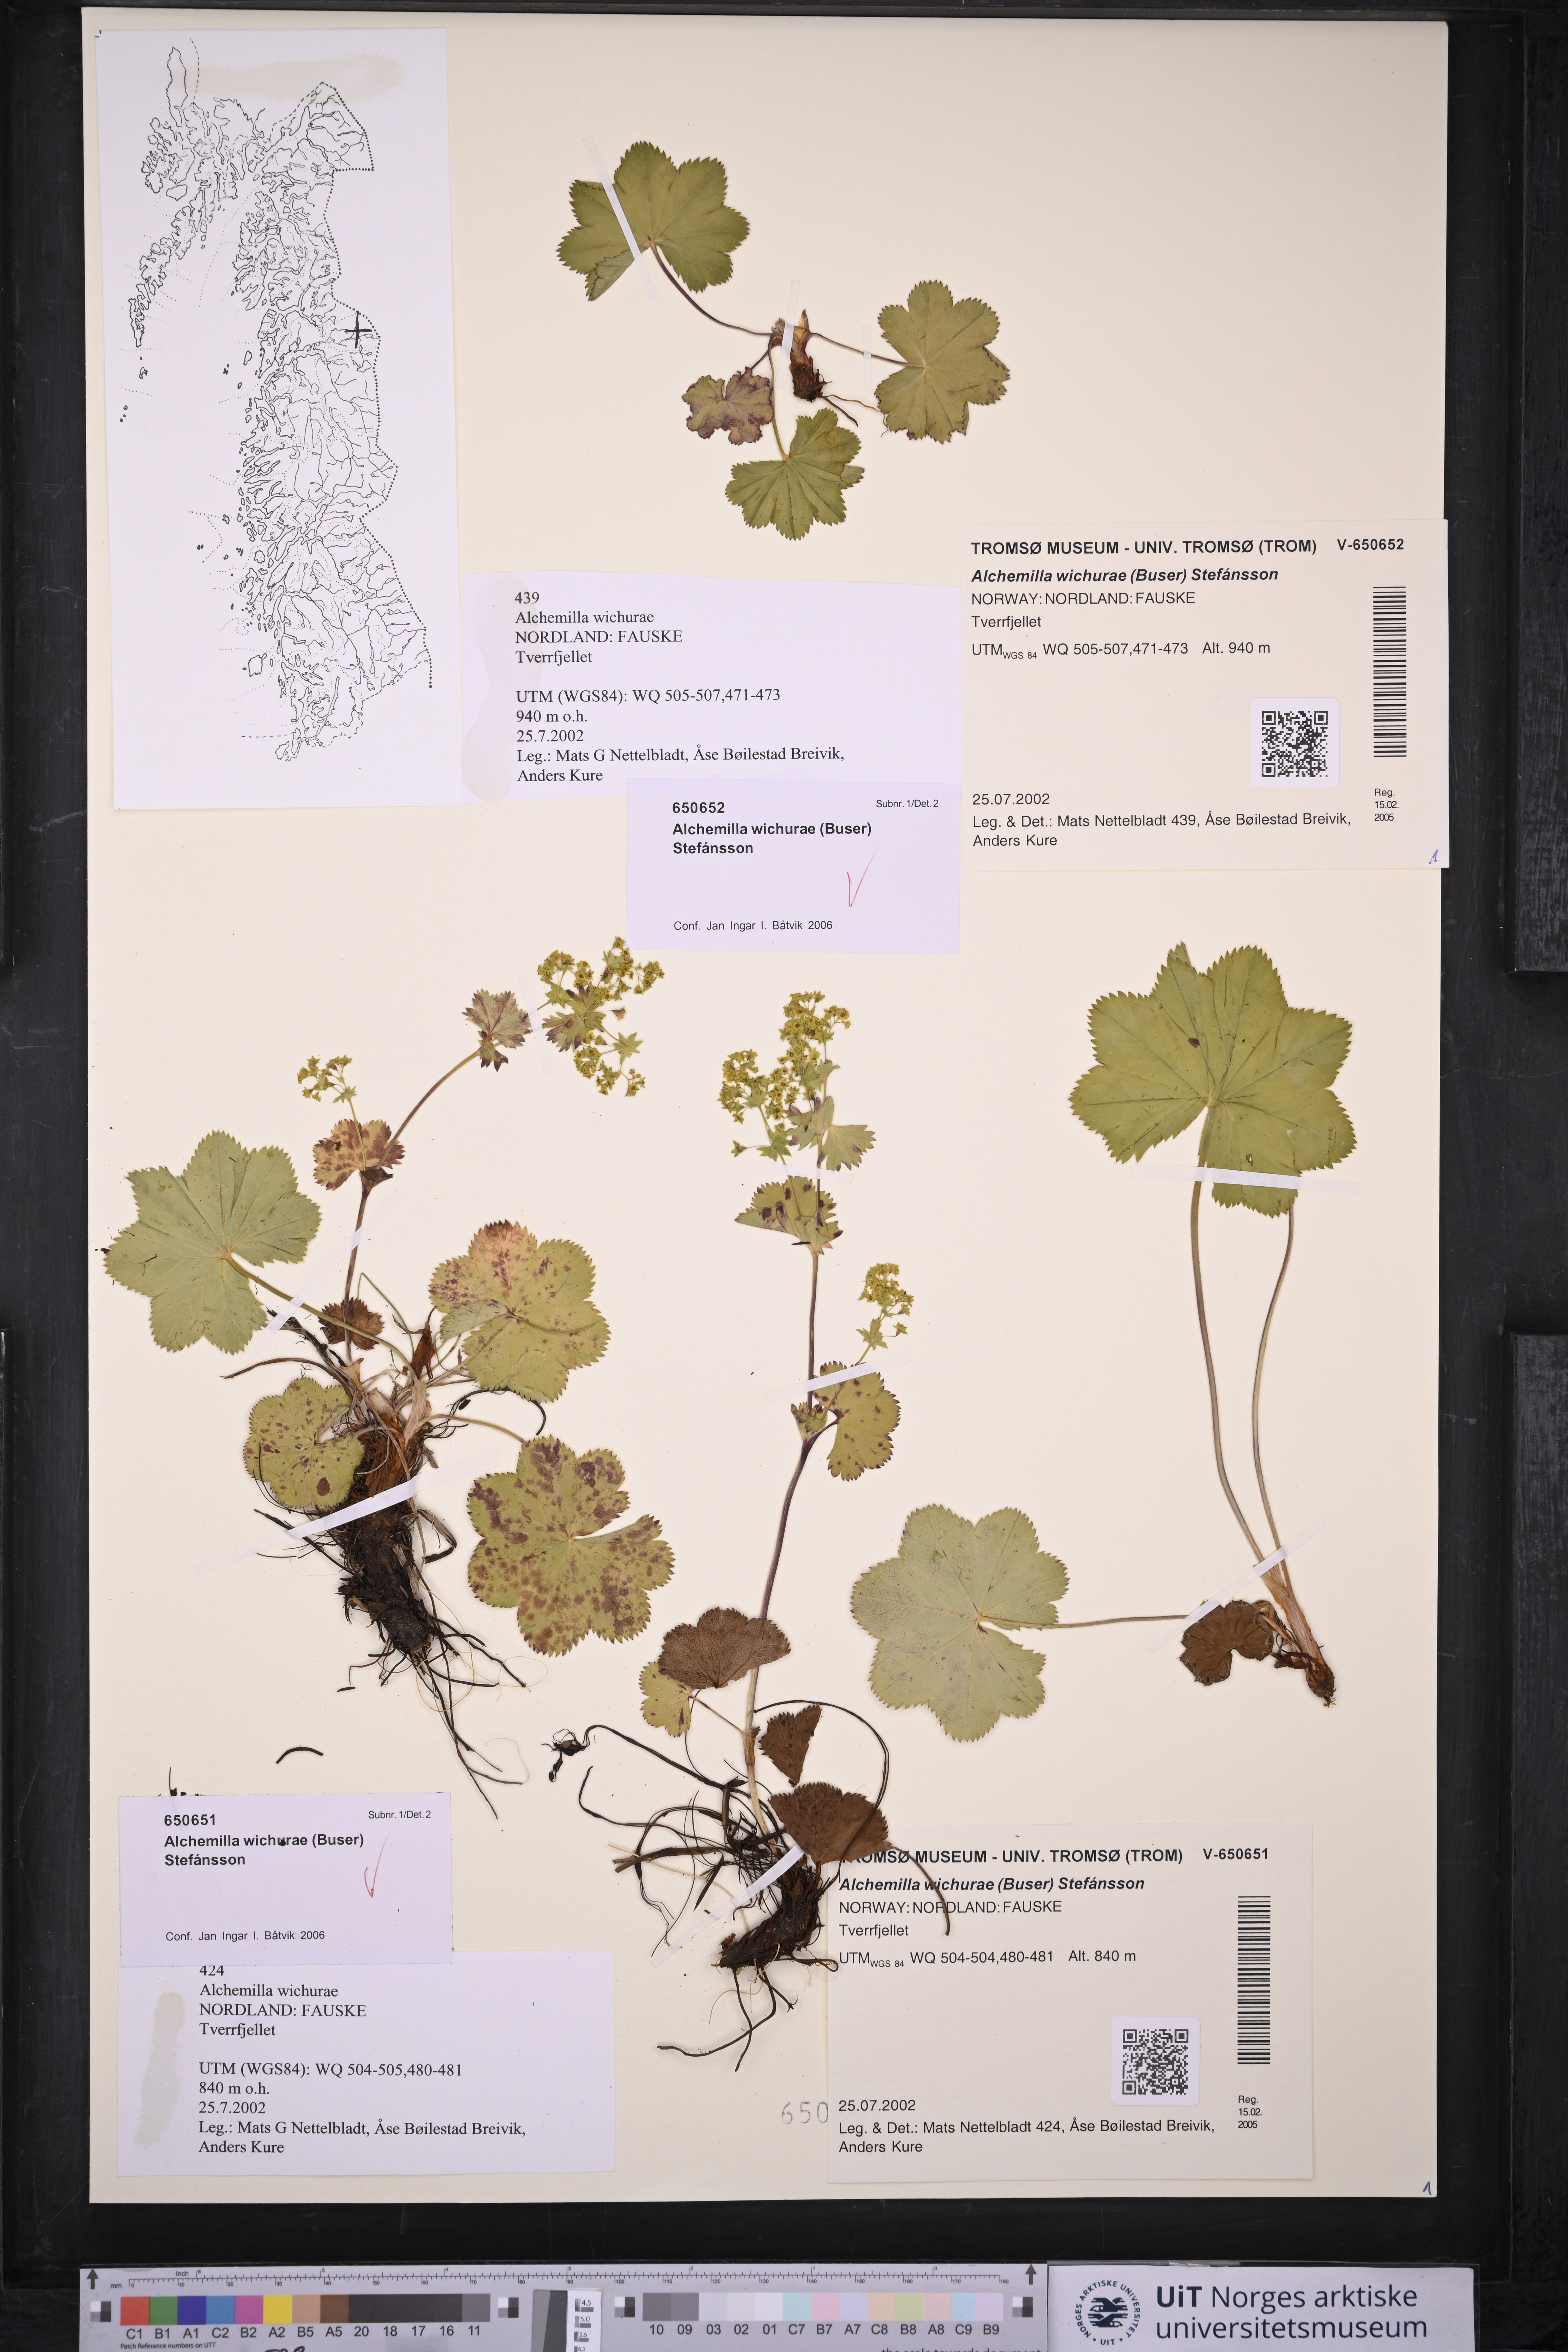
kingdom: Plantae
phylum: Tracheophyta
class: Magnoliopsida
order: Rosales
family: Rosaceae
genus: Alchemilla
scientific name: Alchemilla wichurae
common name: Rock lady's mantle
